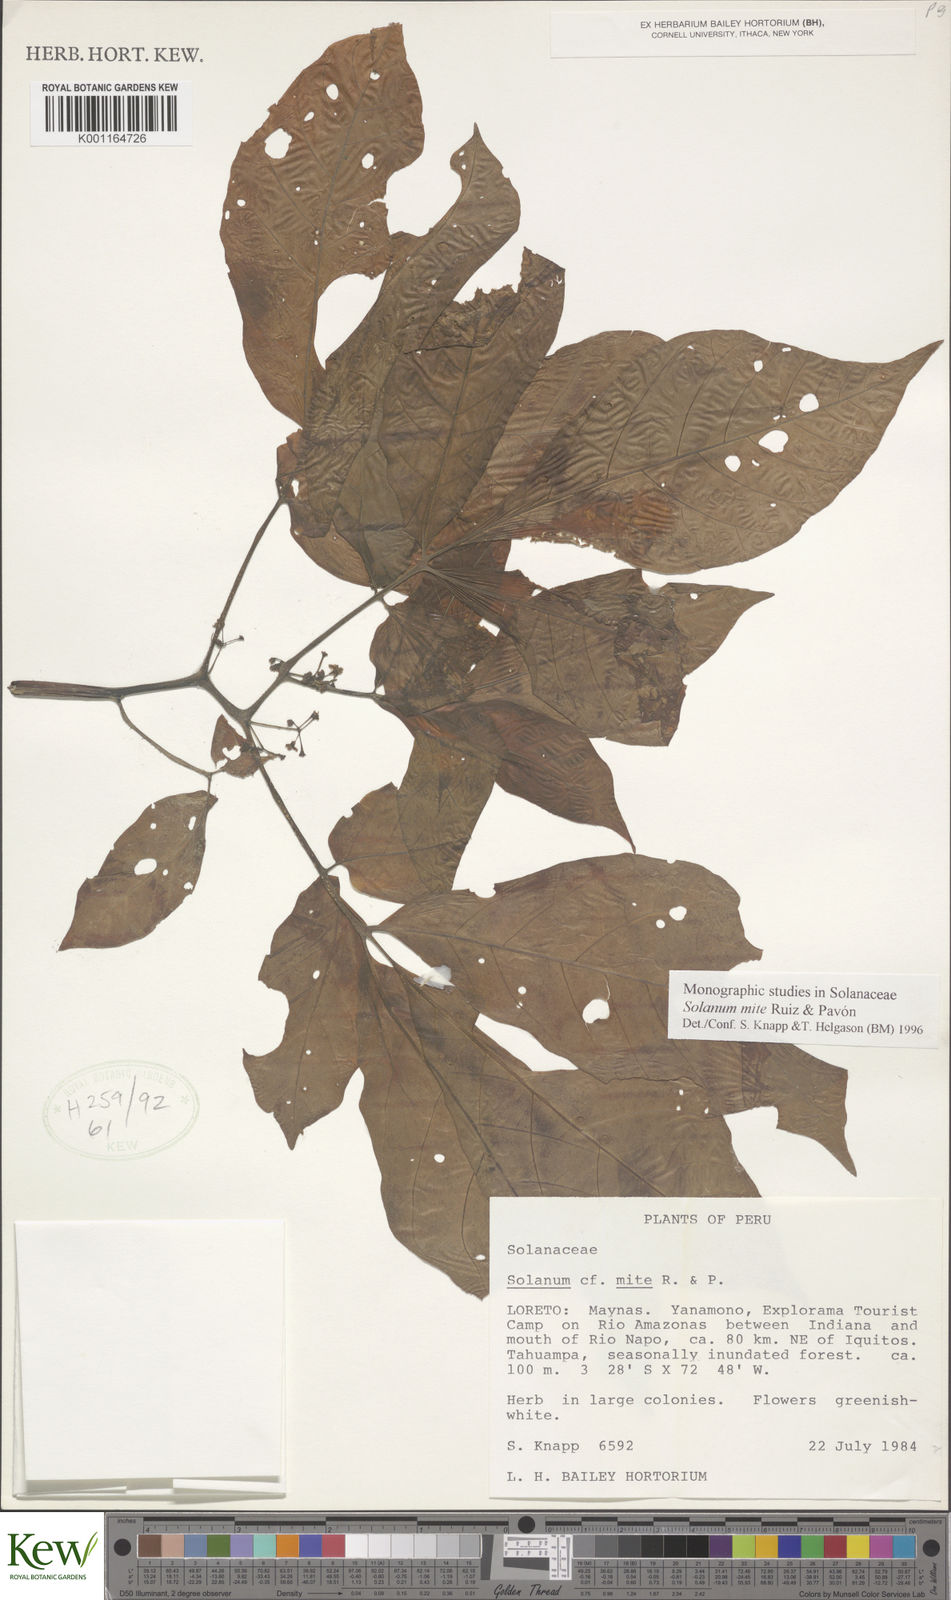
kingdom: Plantae
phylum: Tracheophyta
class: Magnoliopsida
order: Solanales
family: Solanaceae
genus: Solanum
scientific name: Solanum mite
